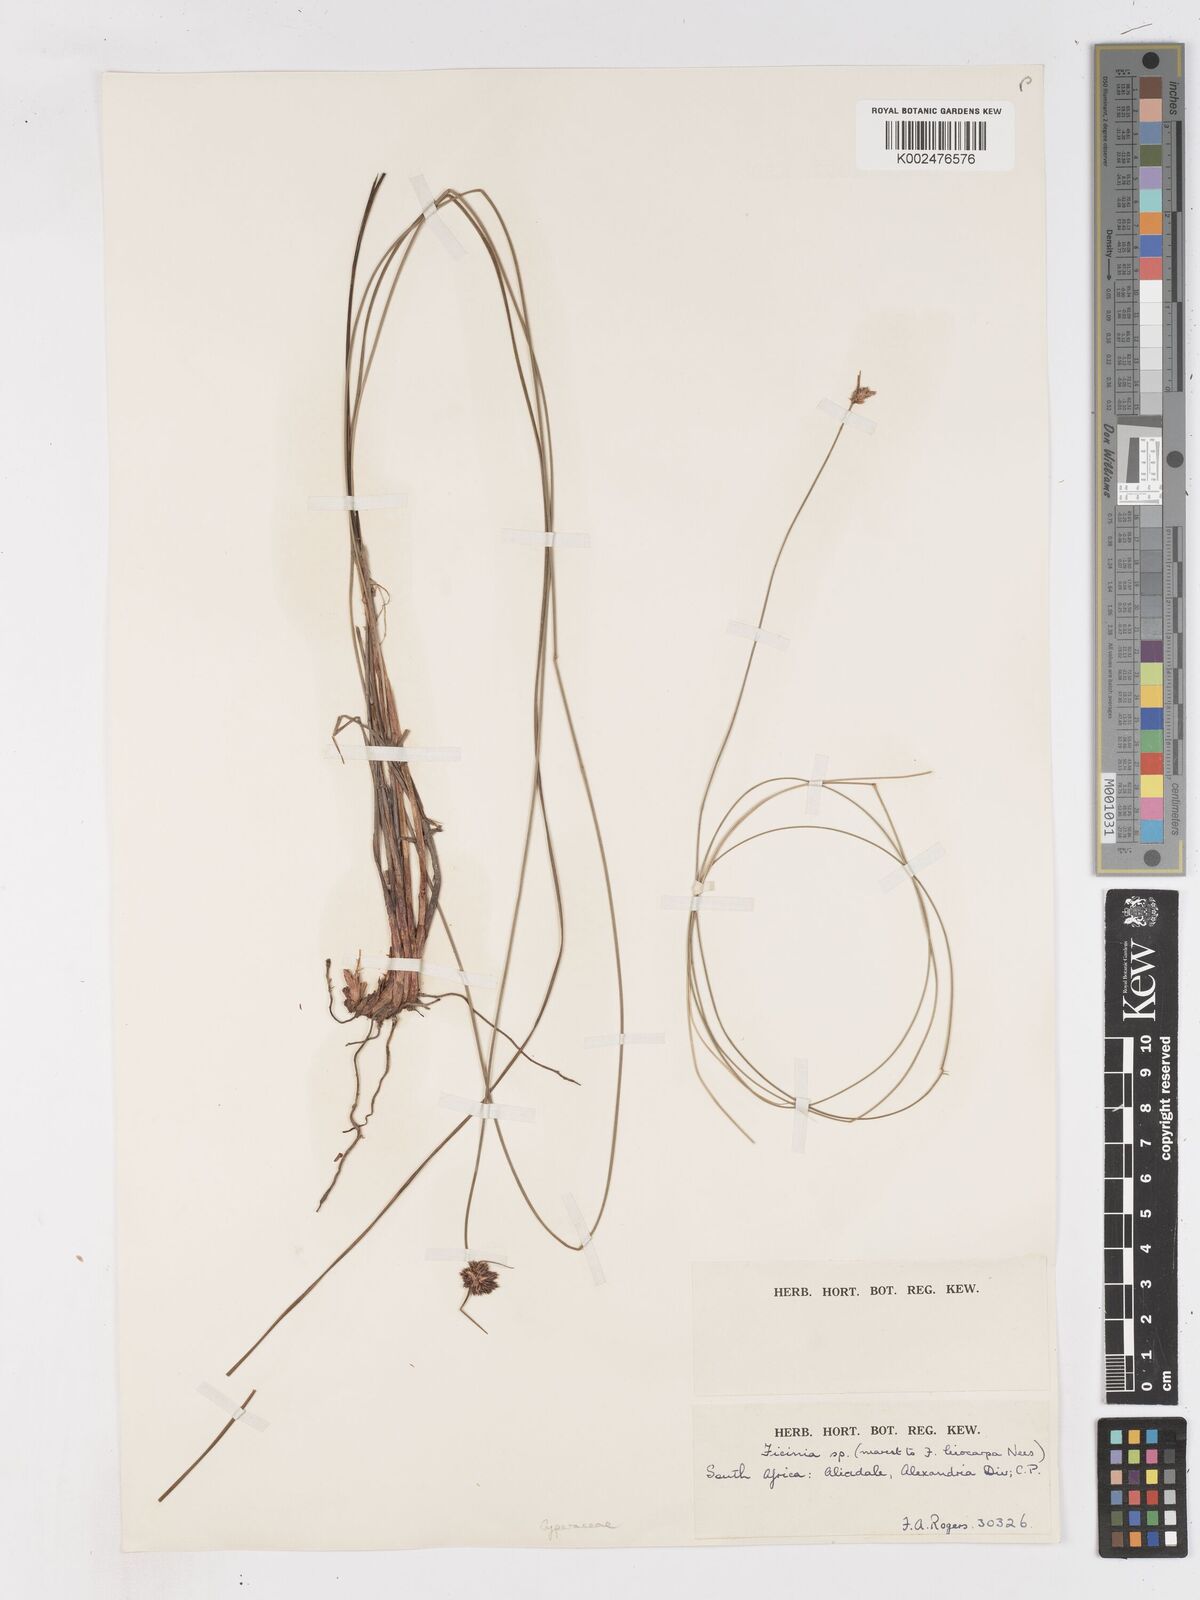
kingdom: Plantae
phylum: Tracheophyta
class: Liliopsida
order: Poales
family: Cyperaceae
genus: Ficinia
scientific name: Ficinia
